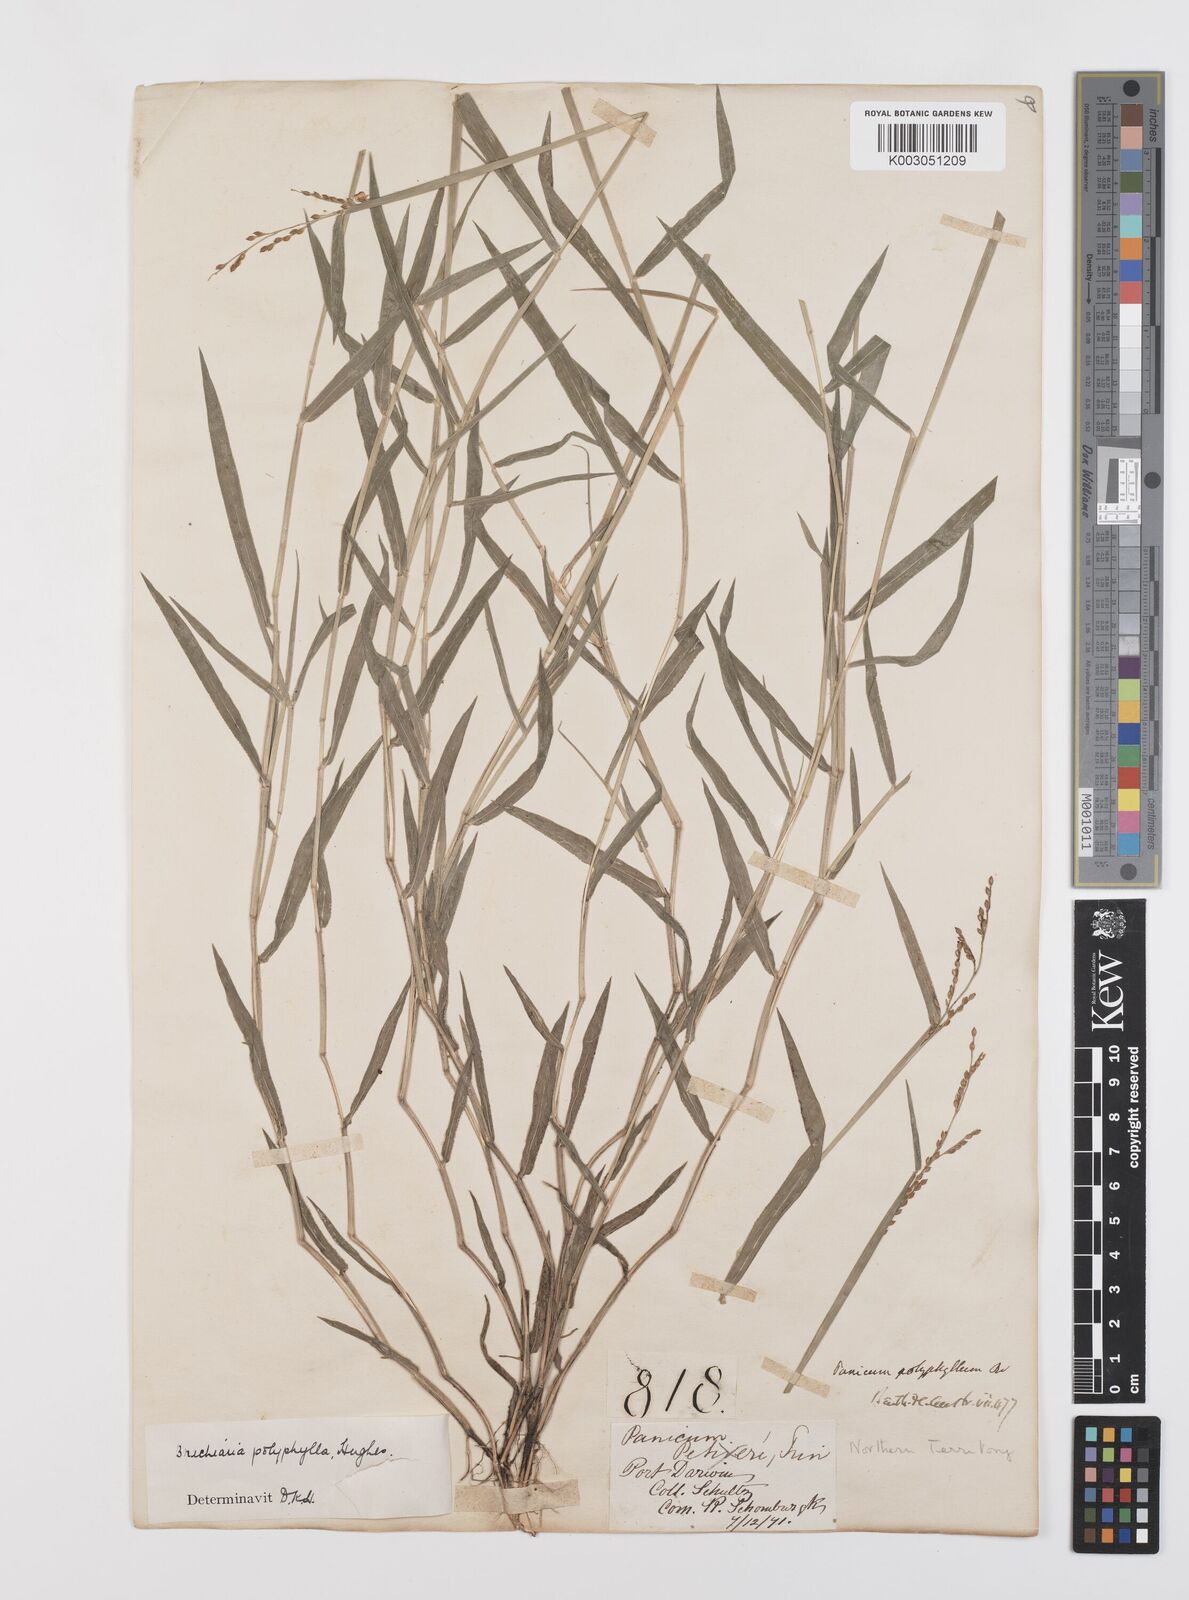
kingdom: Plantae
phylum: Tracheophyta
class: Liliopsida
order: Poales
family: Poaceae
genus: Urochloa
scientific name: Urochloa polyphylla
